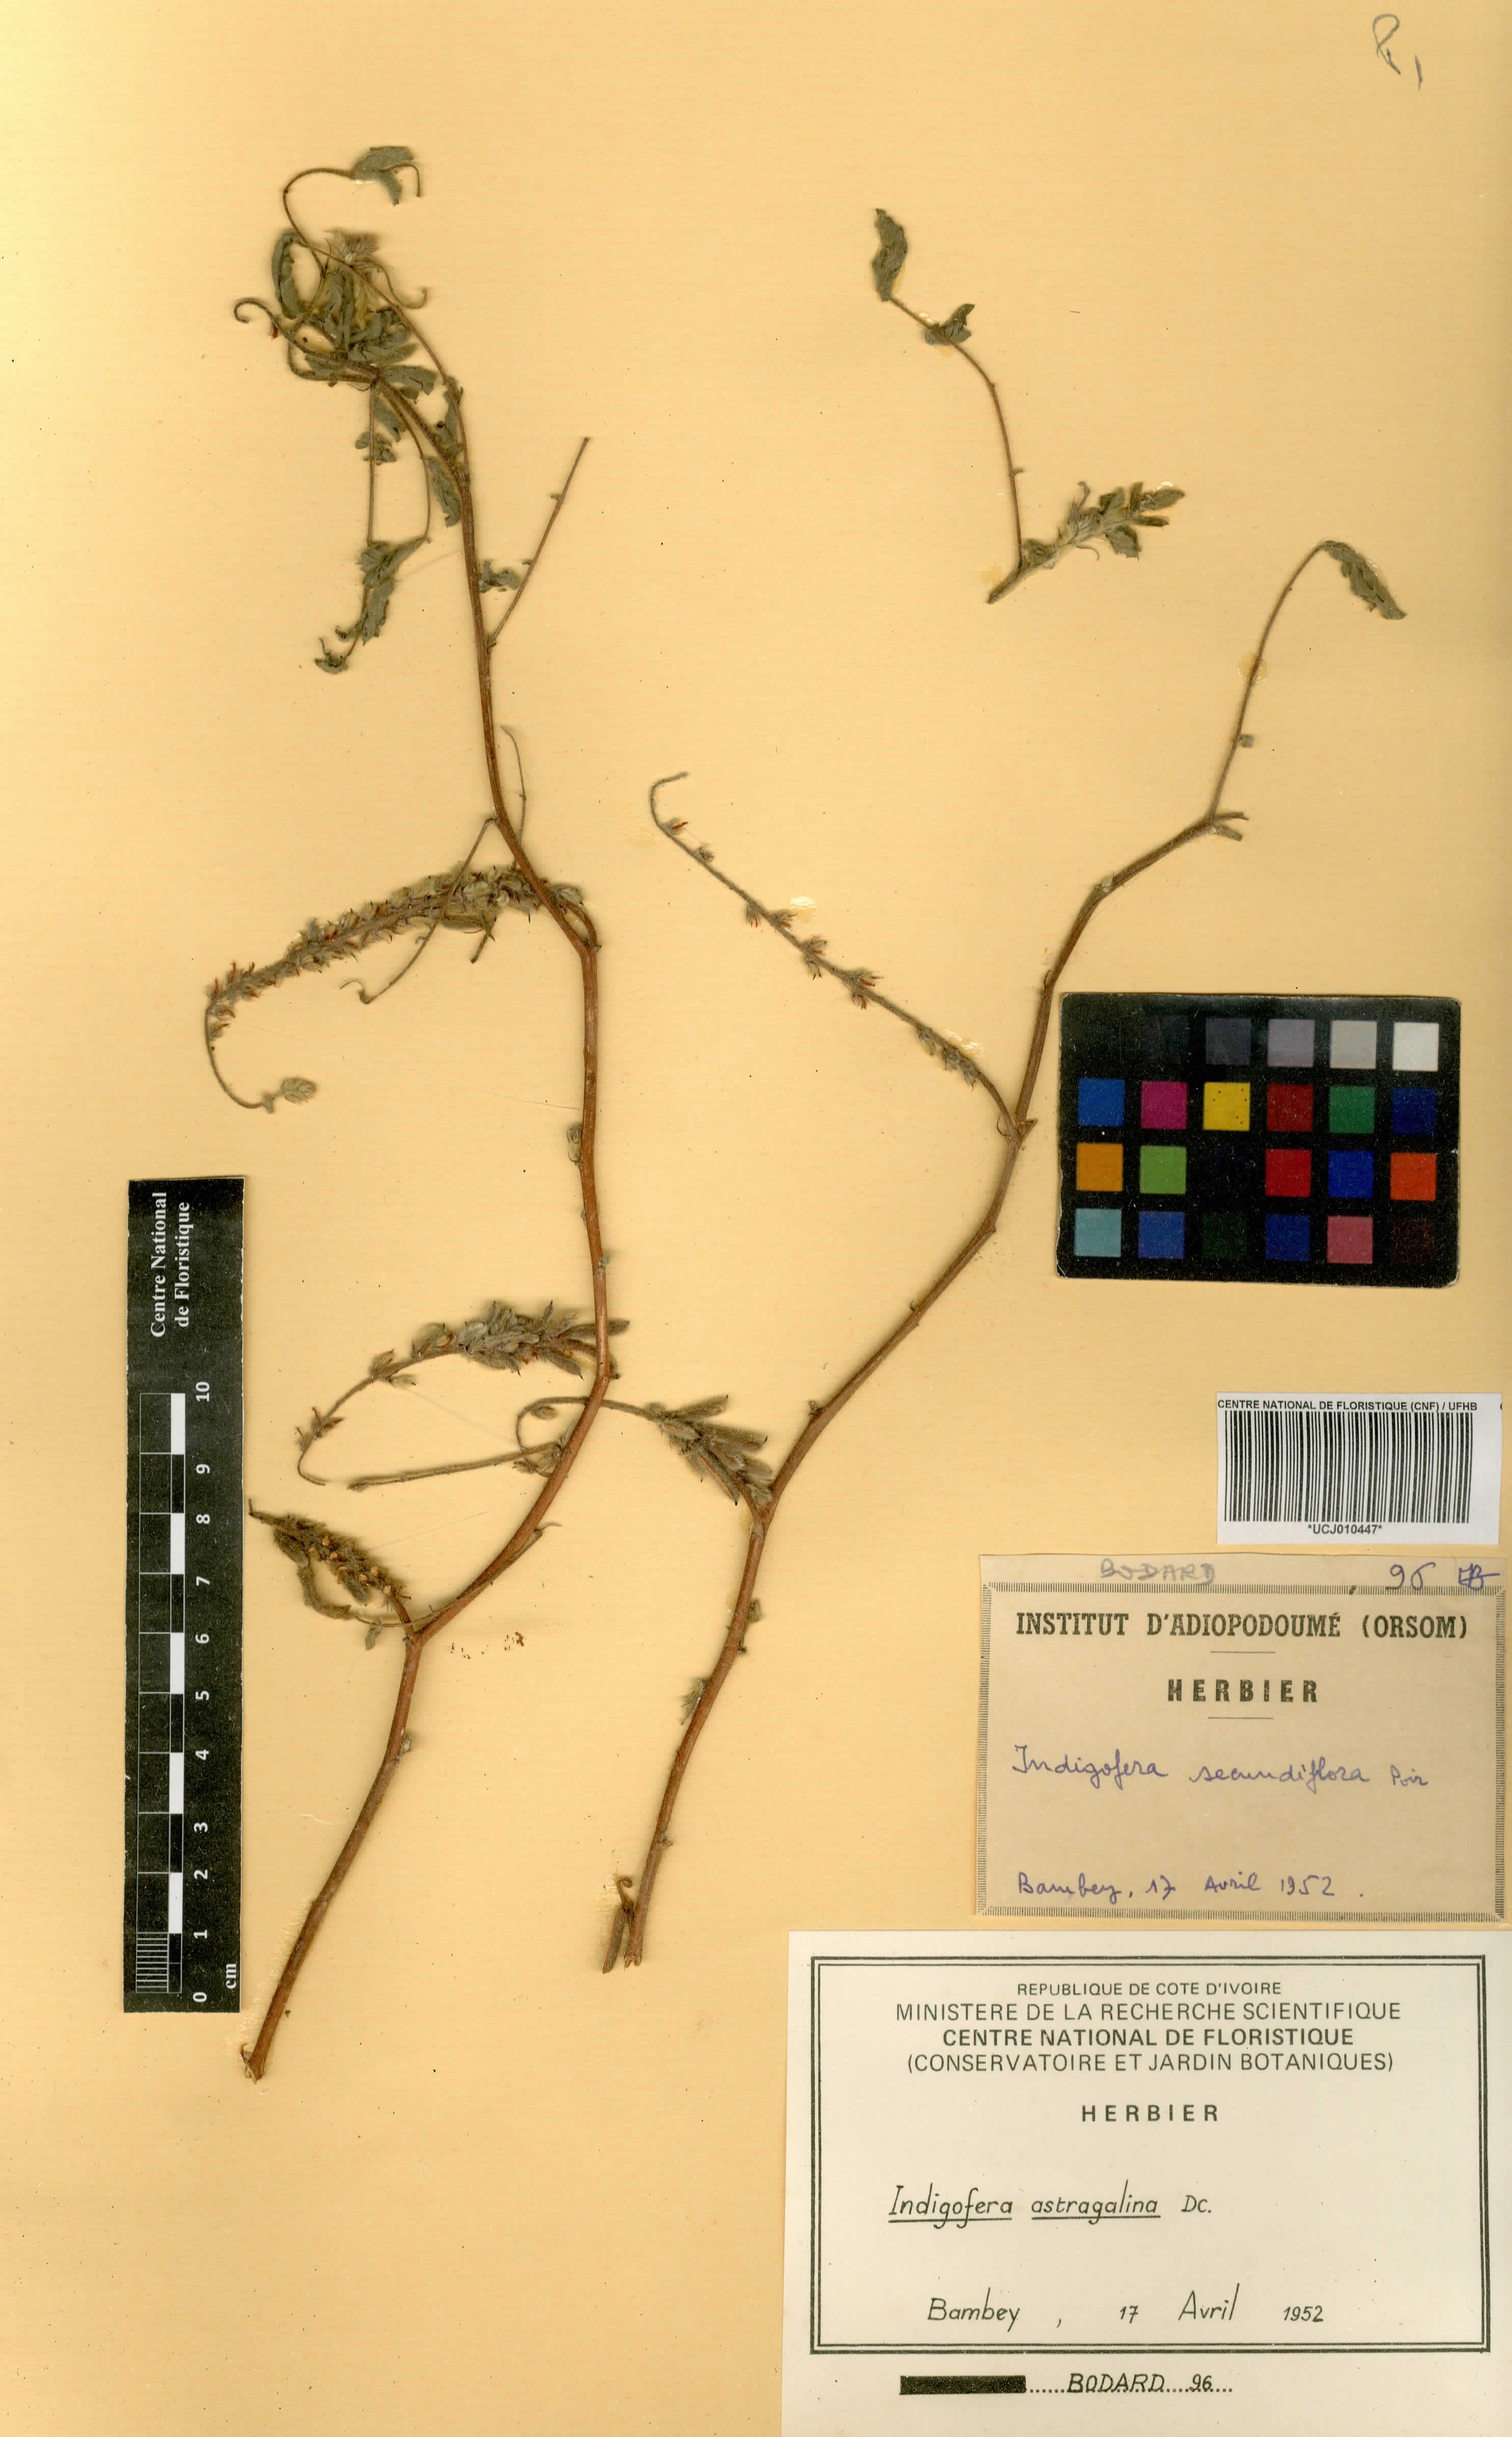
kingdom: Plantae
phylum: Tracheophyta
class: Magnoliopsida
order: Fabales
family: Fabaceae
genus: Indigofera
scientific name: Indigofera astragalina
